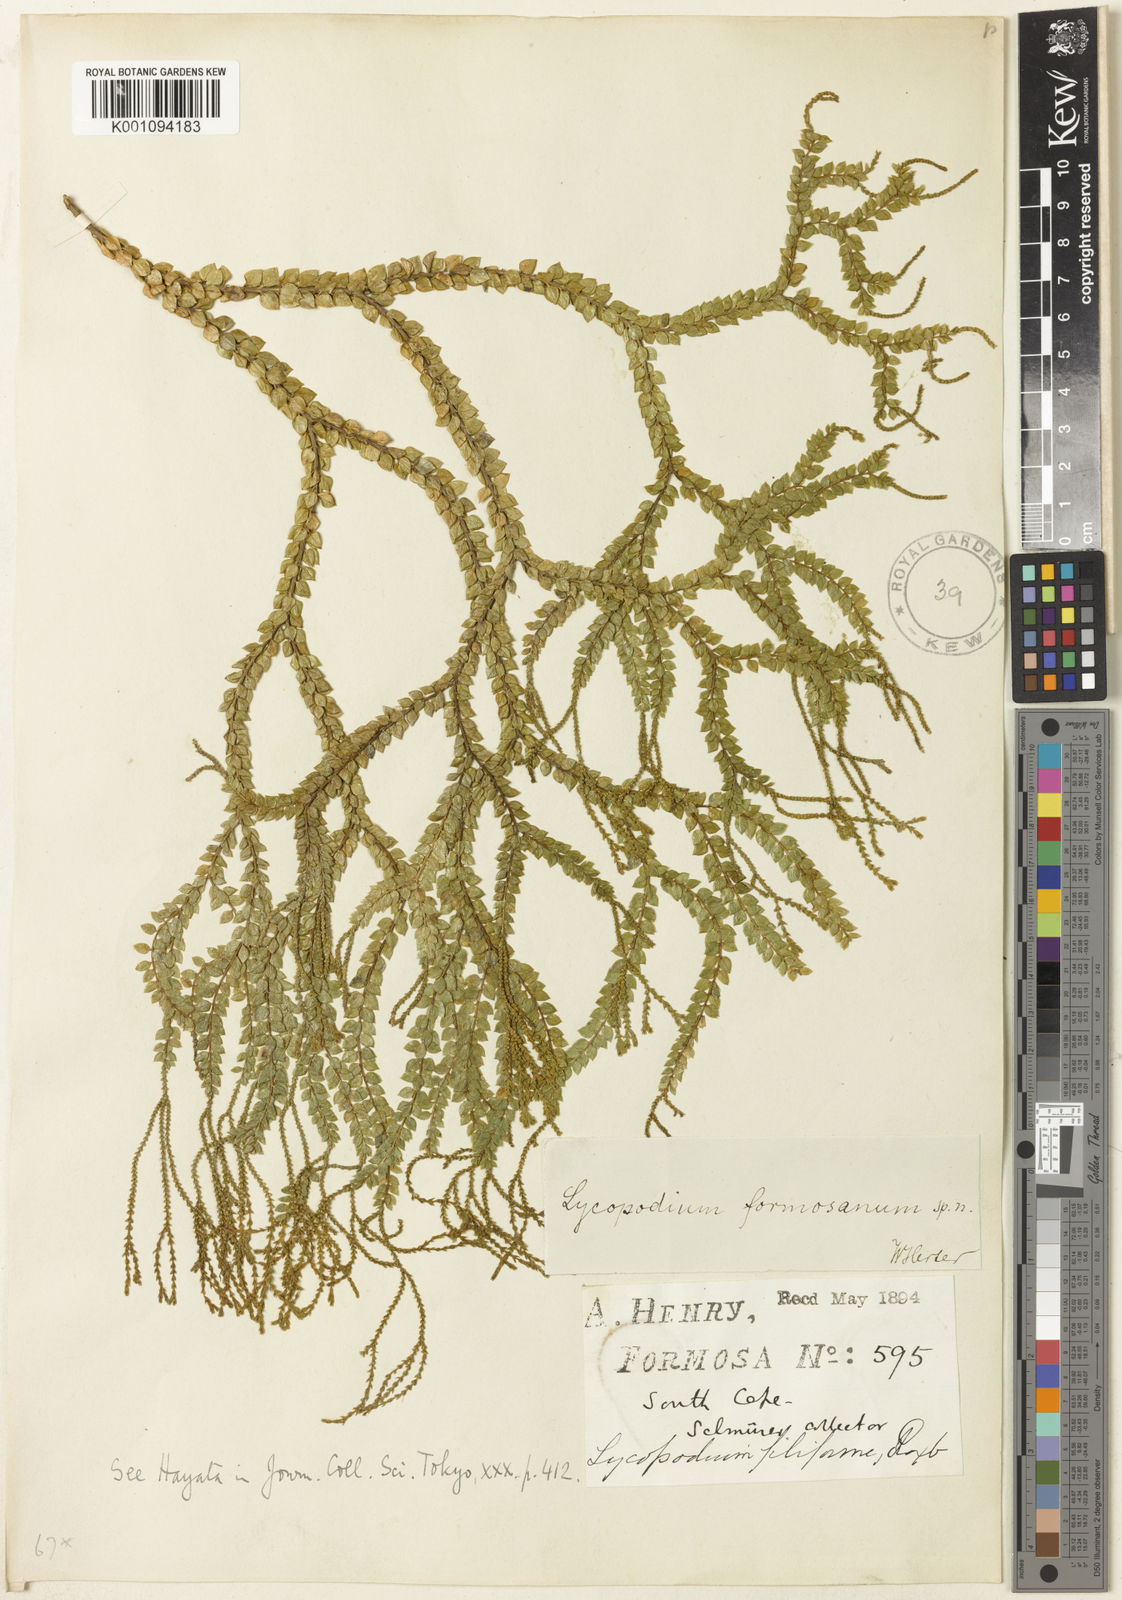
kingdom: Plantae
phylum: Tracheophyta
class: Lycopodiopsida
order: Lycopodiales
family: Lycopodiaceae
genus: Phlegmariurus
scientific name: Phlegmariurus phlegmaria
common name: Coarse tassel-fern
